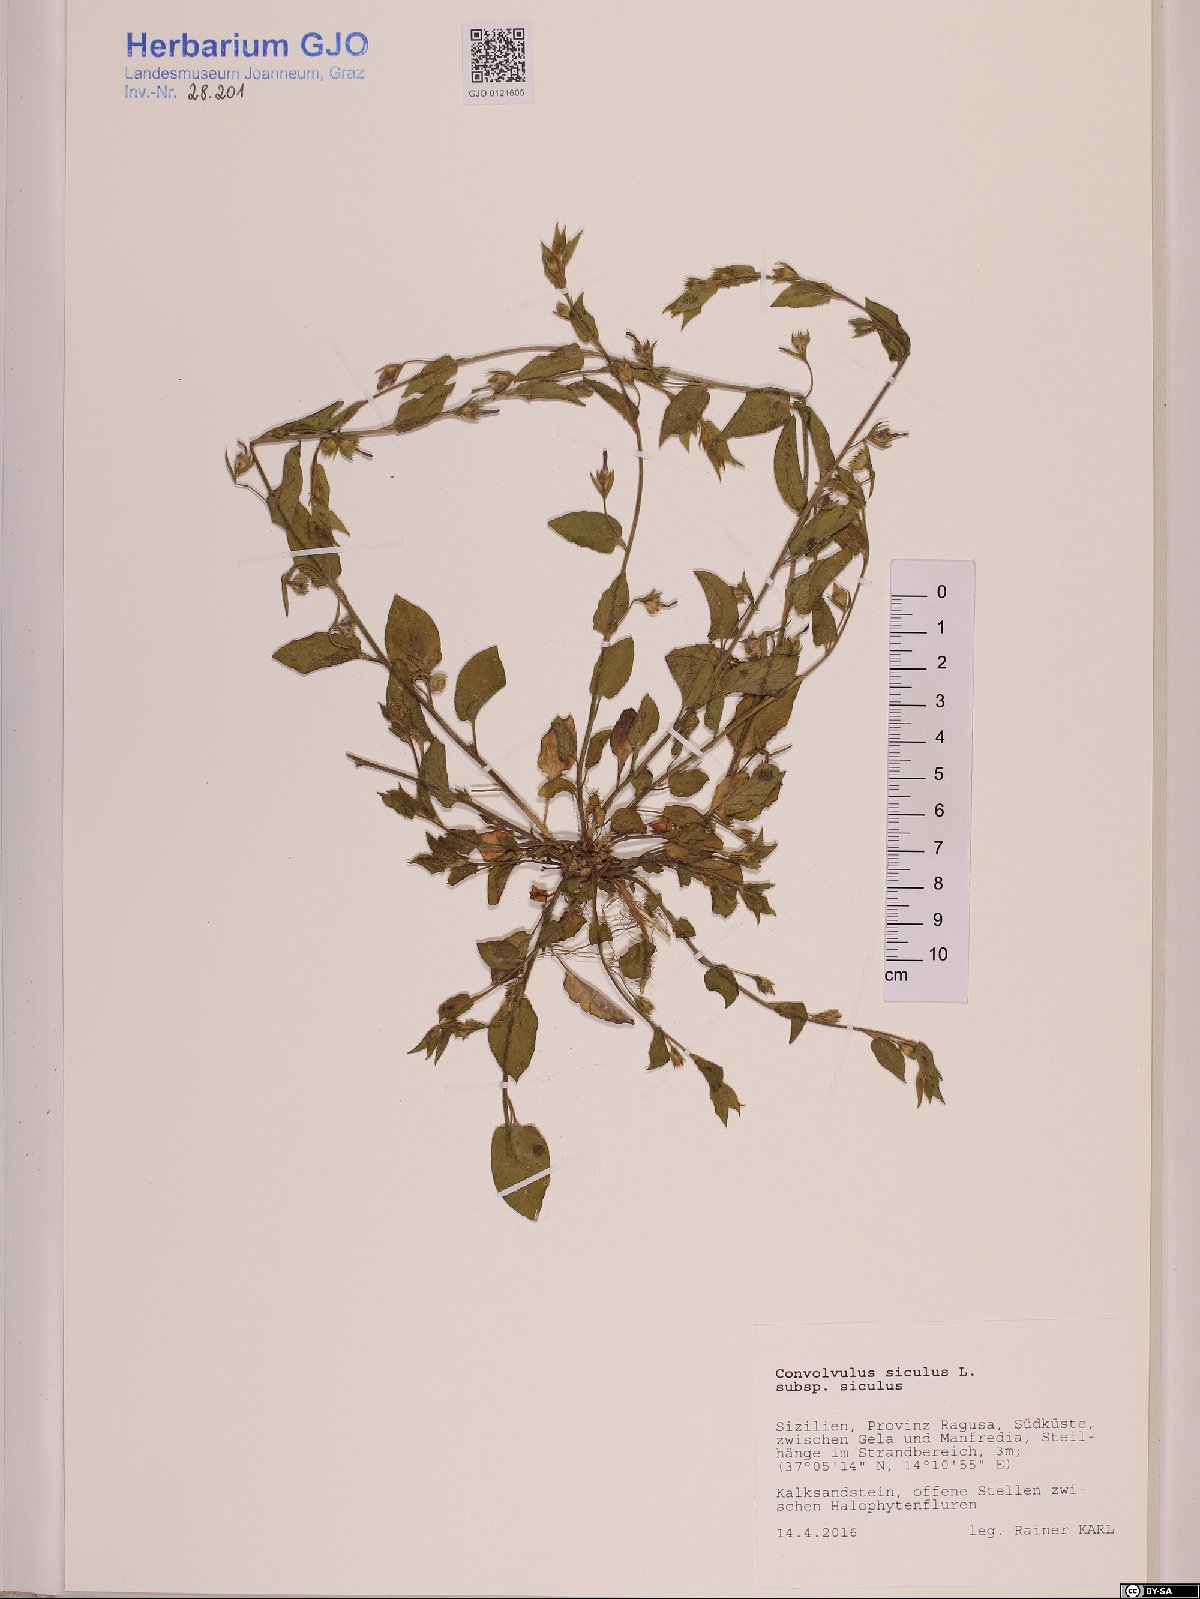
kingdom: Plantae
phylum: Tracheophyta
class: Magnoliopsida
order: Solanales
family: Convolvulaceae
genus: Convolvulus
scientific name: Convolvulus siculus
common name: Small blue-convolvulus
